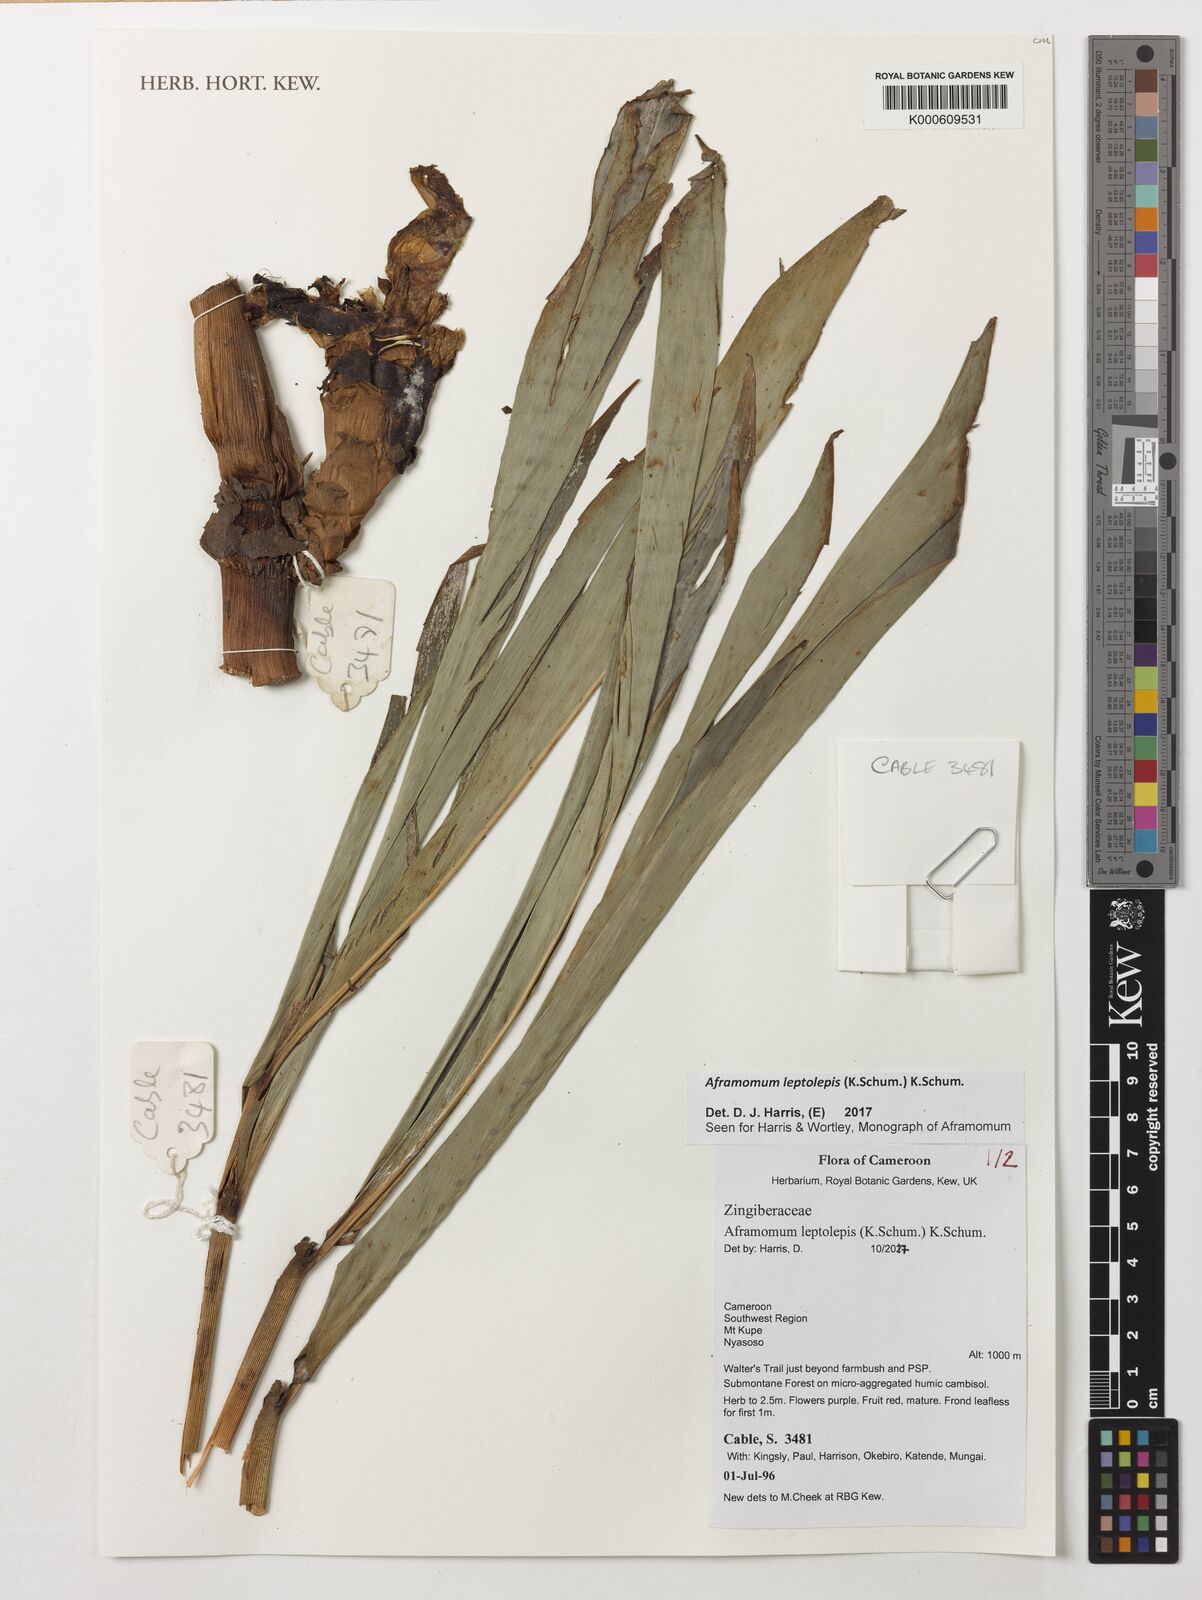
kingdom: Plantae
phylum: Tracheophyta
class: Liliopsida
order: Zingiberales
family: Zingiberaceae
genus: Aframomum
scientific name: Aframomum leptolepis
